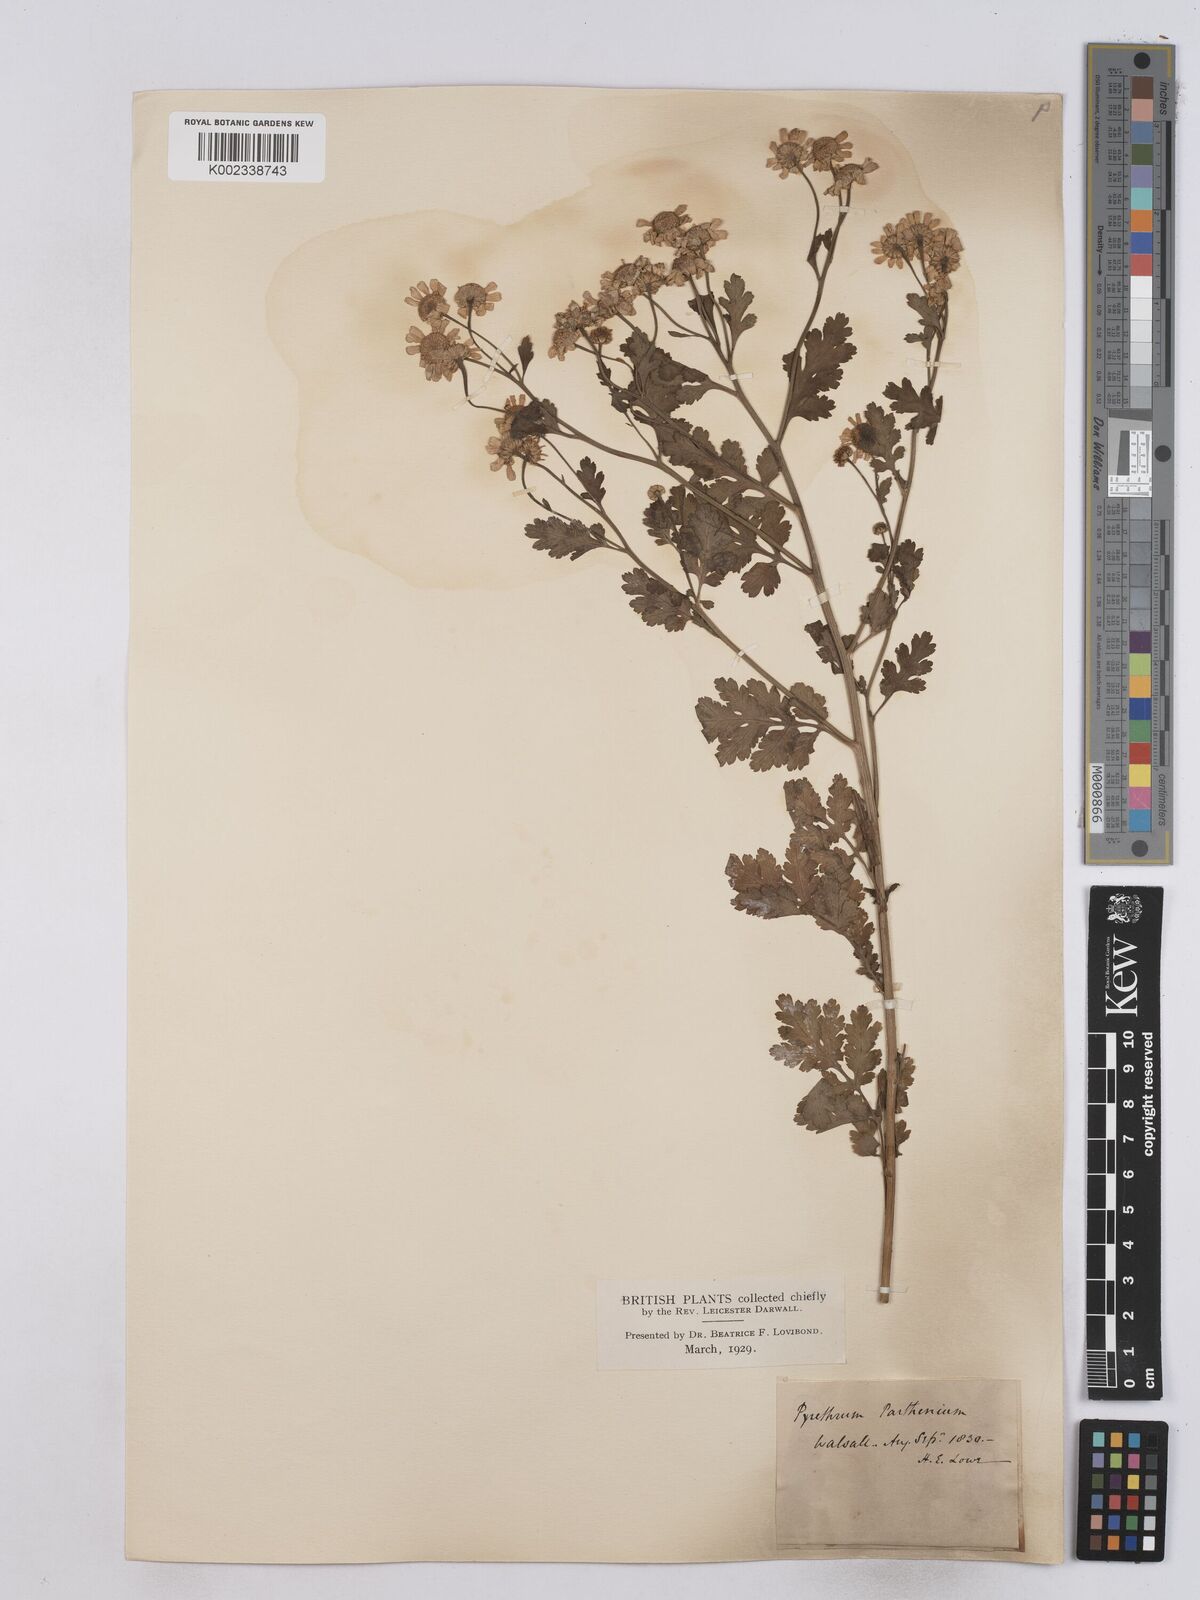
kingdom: Plantae
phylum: Tracheophyta
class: Magnoliopsida
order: Asterales
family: Asteraceae
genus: Tanacetum
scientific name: Tanacetum parthenium
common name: Feverfew
